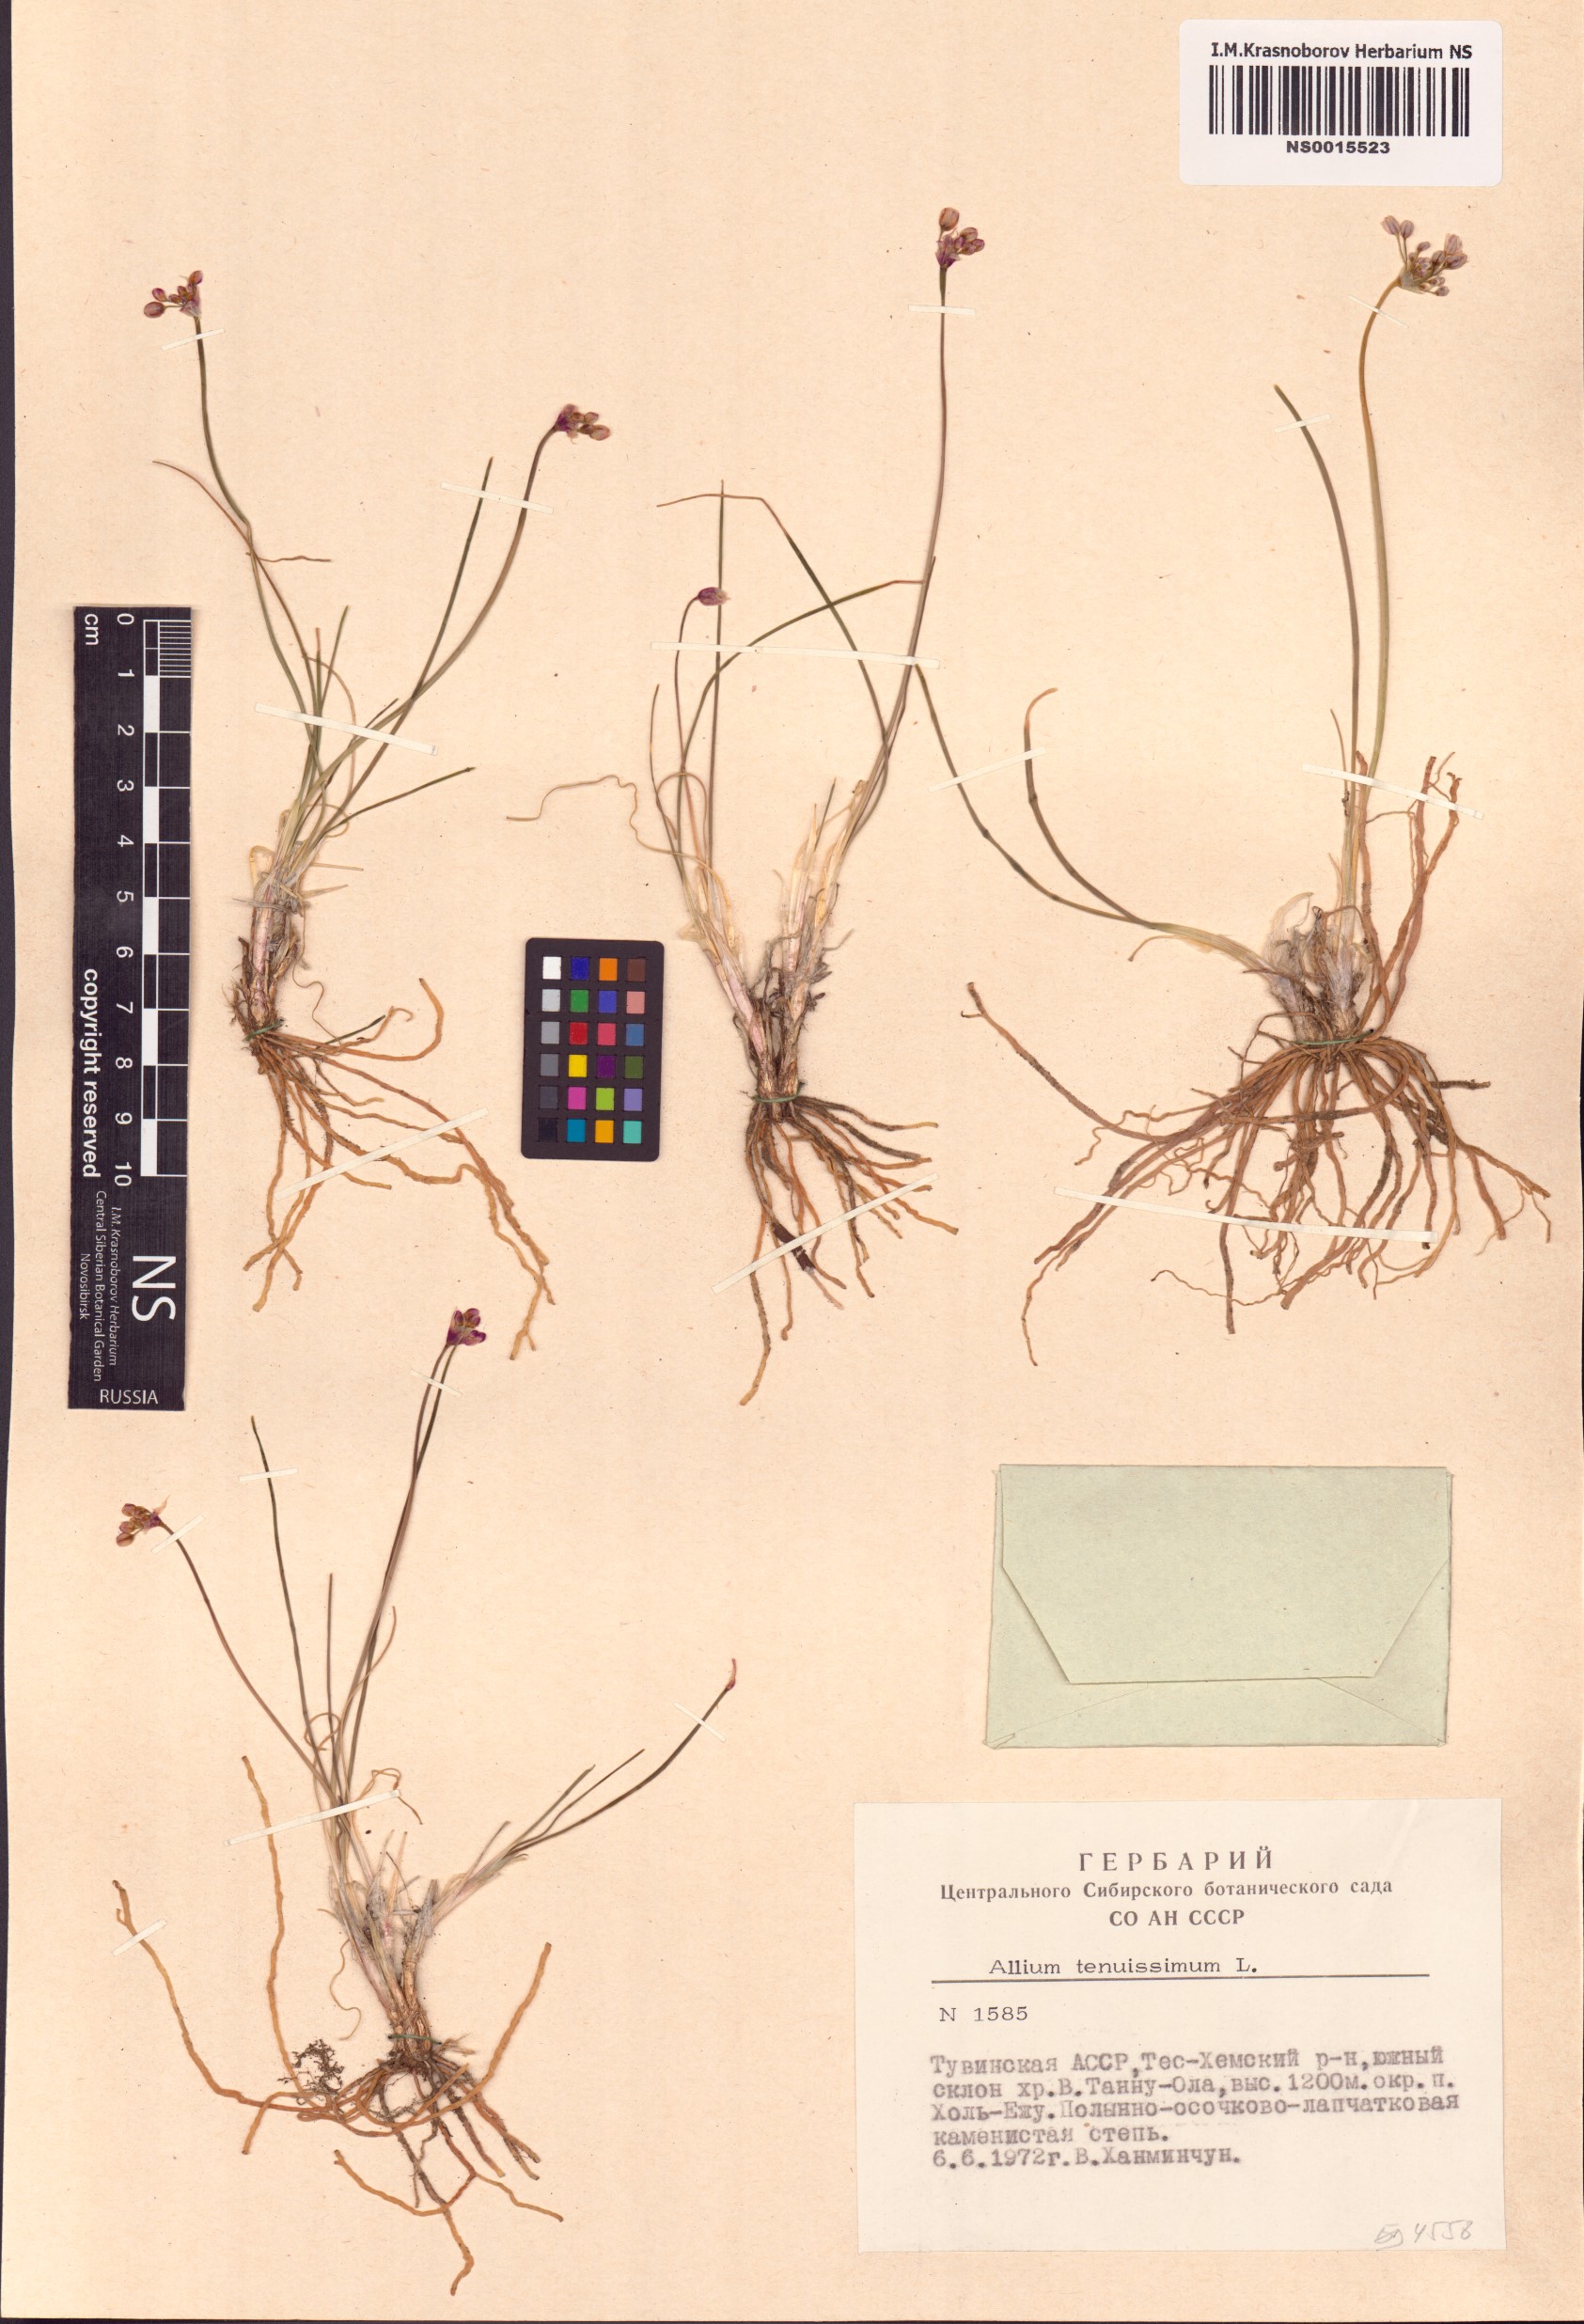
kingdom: Plantae
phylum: Tracheophyta
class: Liliopsida
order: Asparagales
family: Amaryllidaceae
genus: Allium
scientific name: Allium tenuissimum
